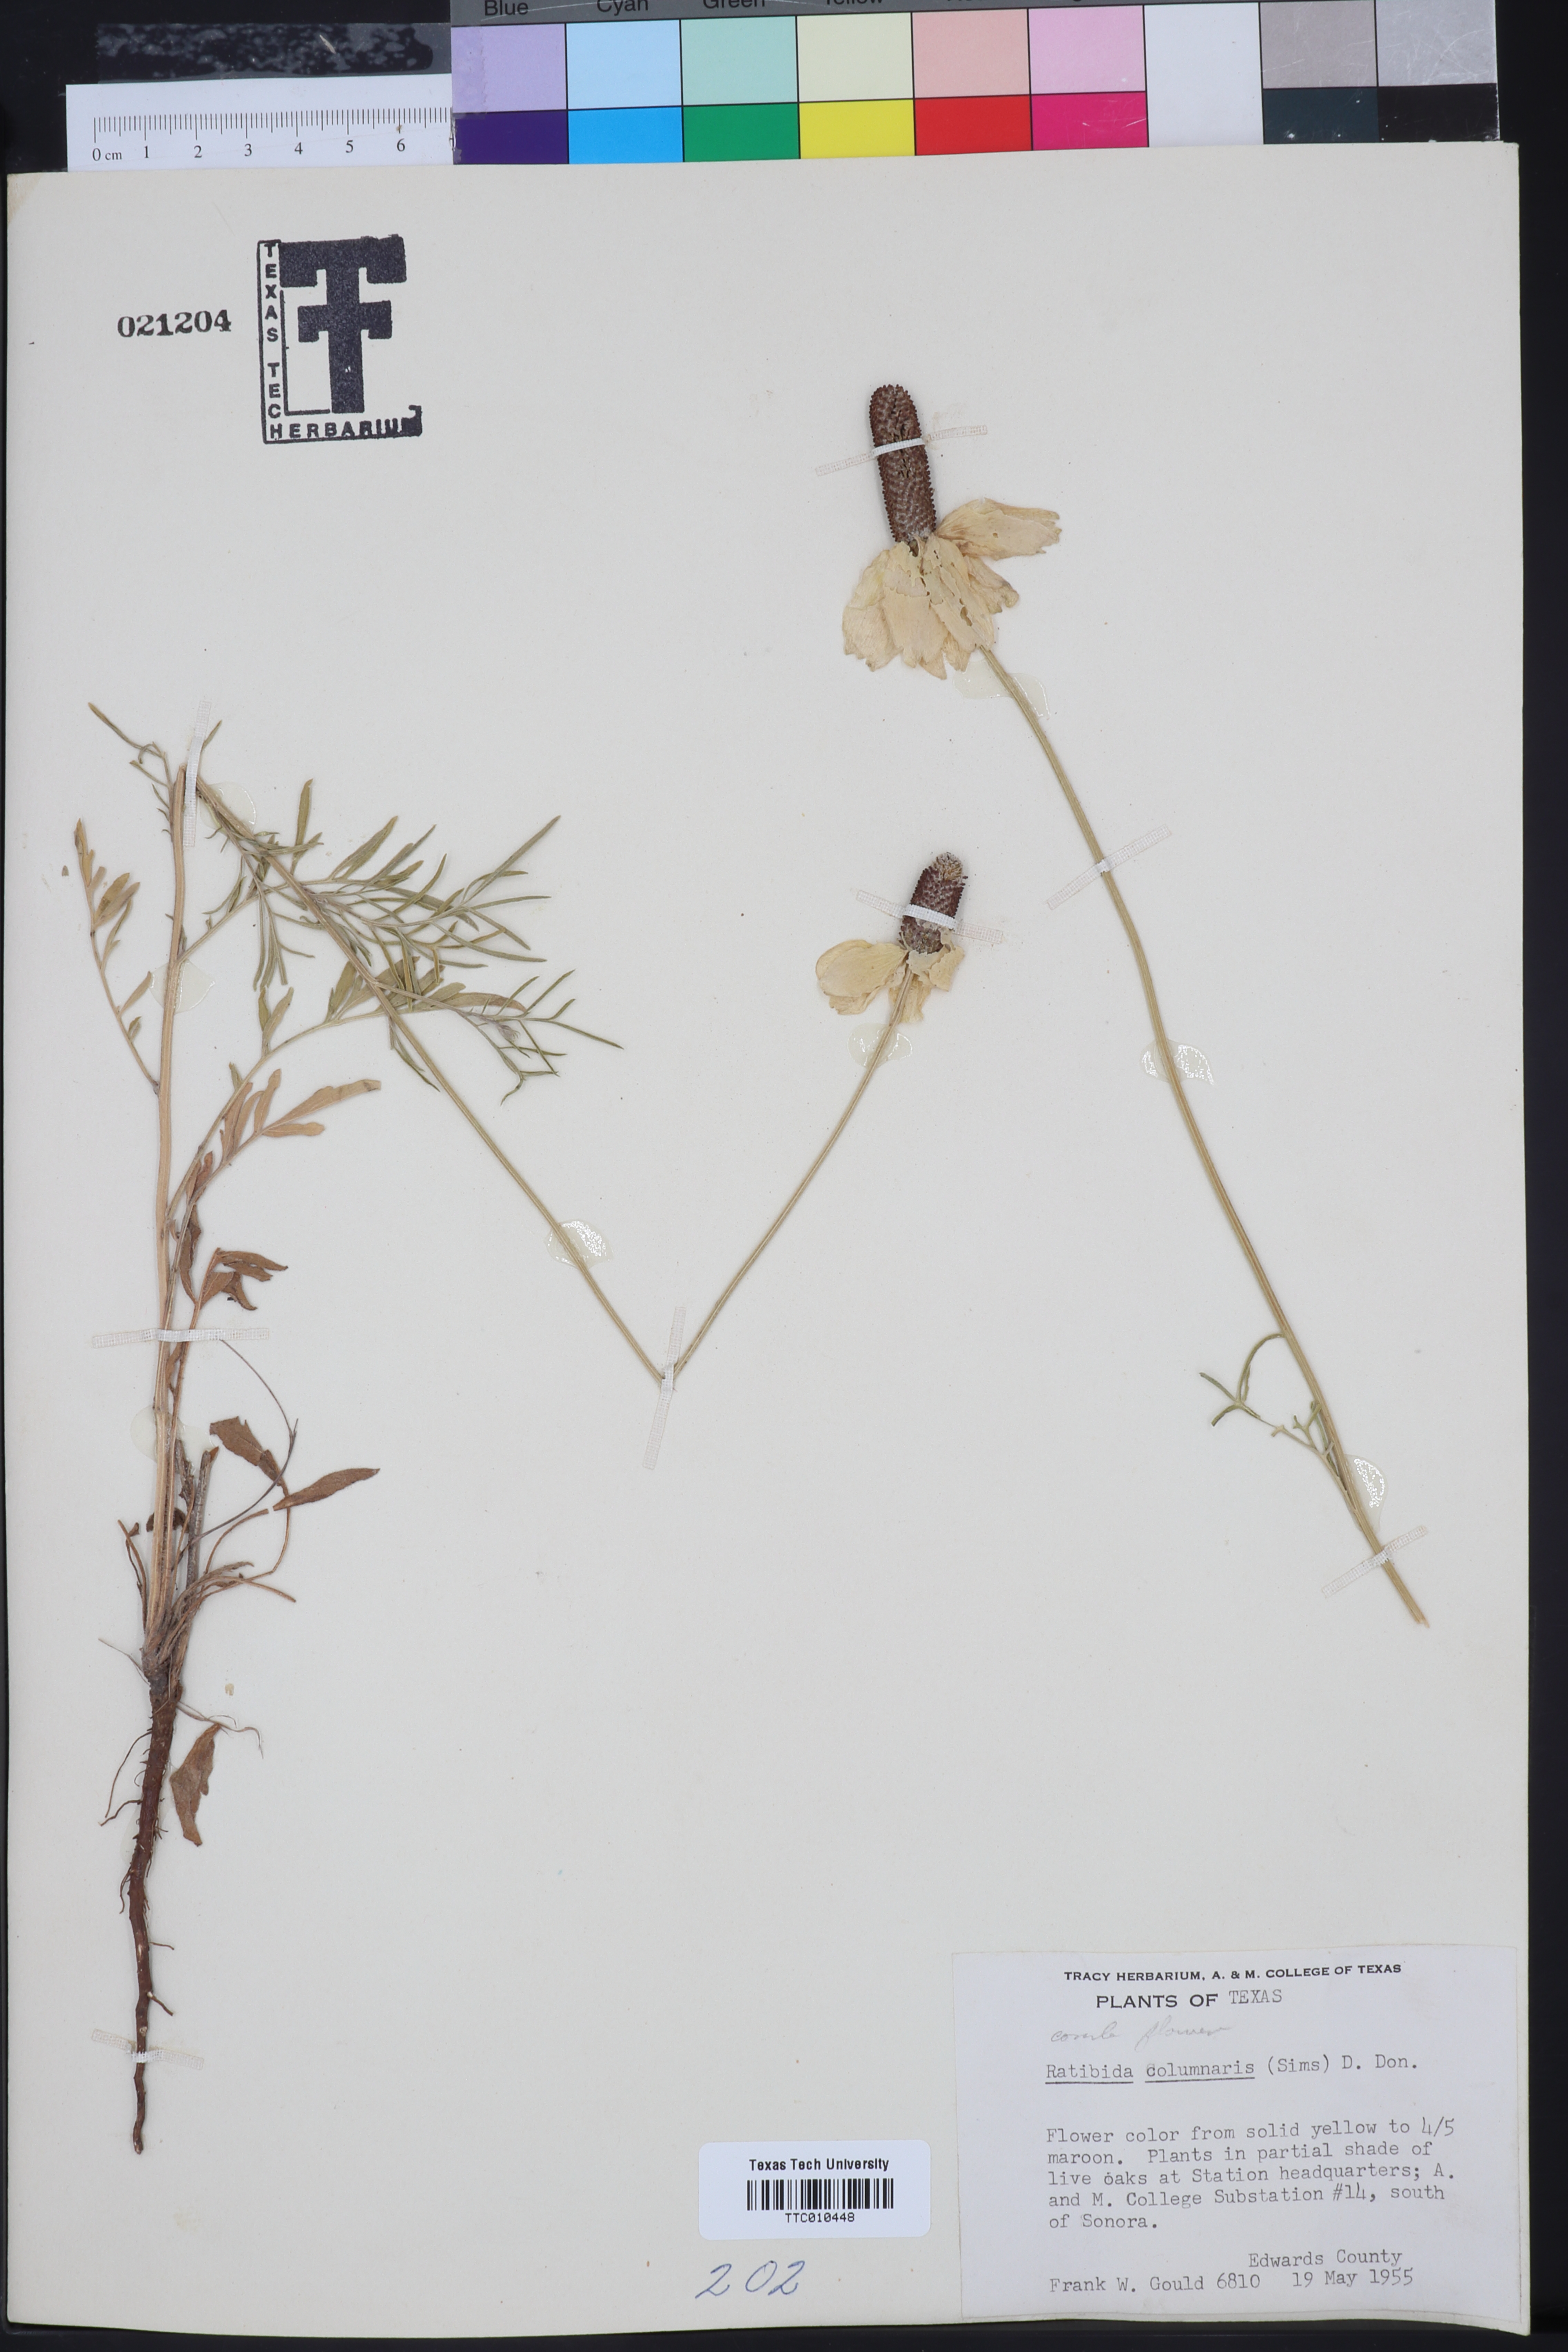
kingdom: Plantae
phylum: Tracheophyta
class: Magnoliopsida
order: Asterales
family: Asteraceae
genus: Ratibida
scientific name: Ratibida columnifera
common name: Prairie coneflower
